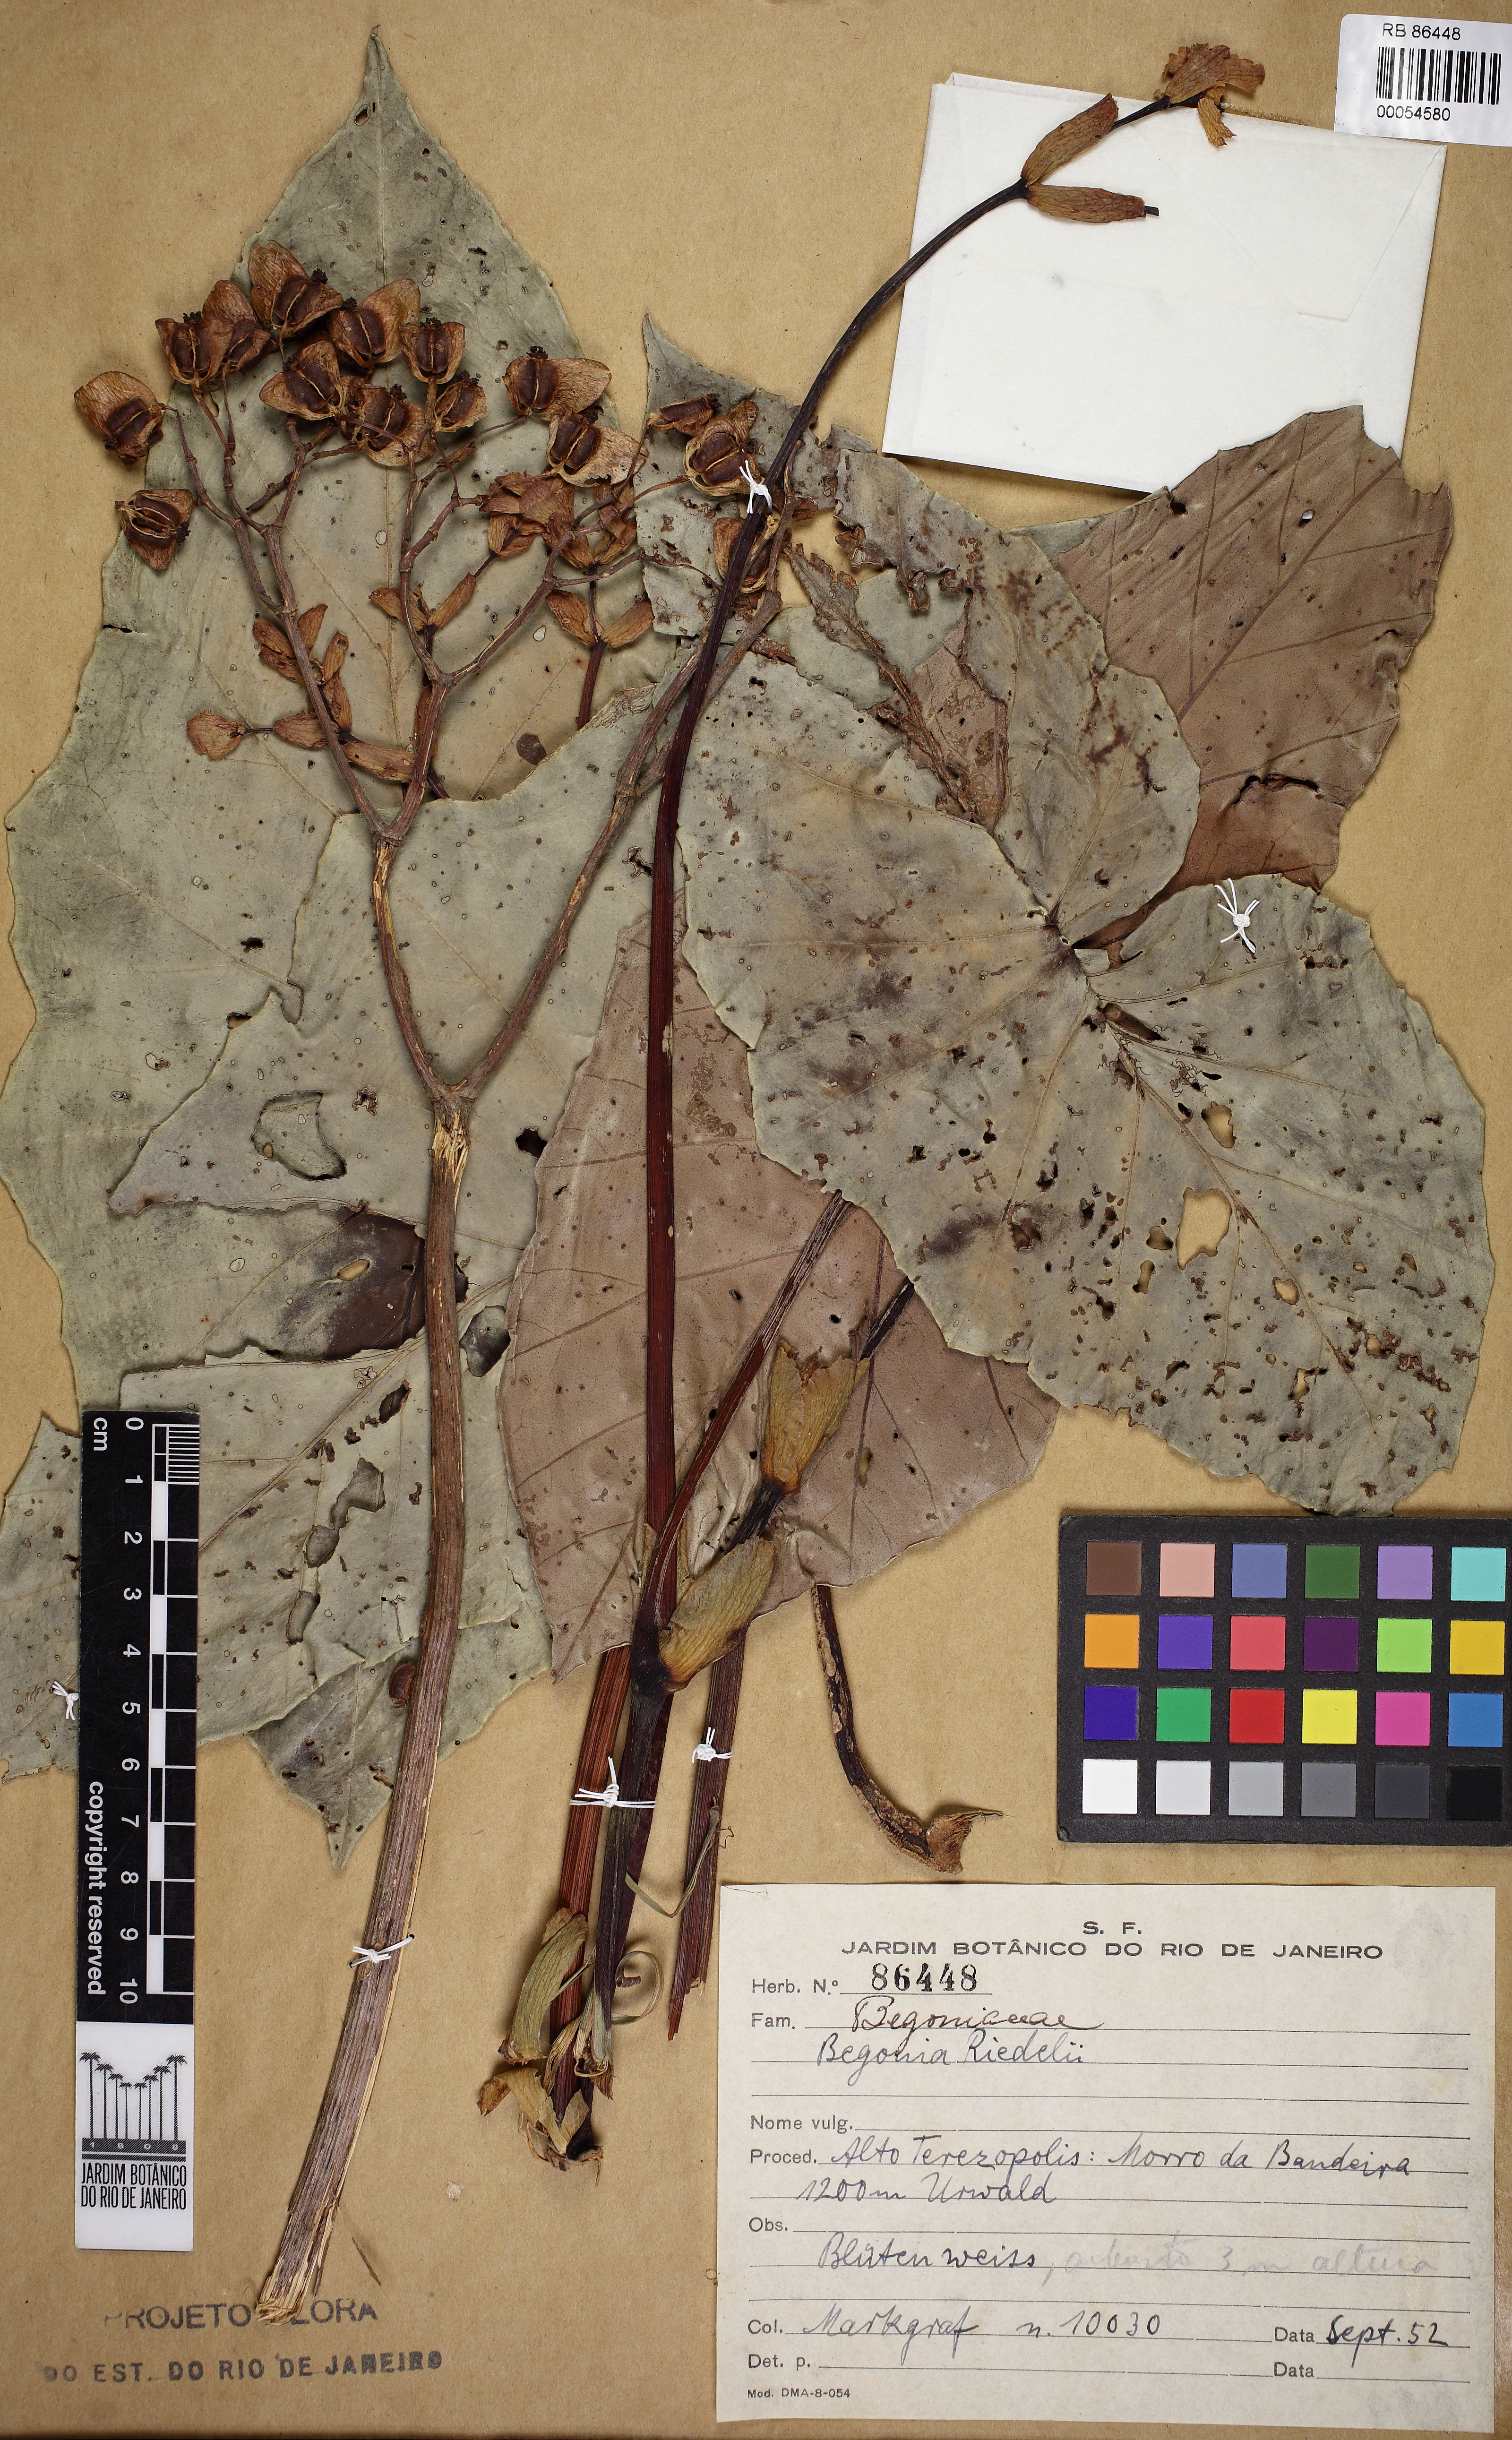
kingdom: Plantae
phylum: Tracheophyta
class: Magnoliopsida
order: Cucurbitales
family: Begoniaceae
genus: Begonia
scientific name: Begonia riedelii
